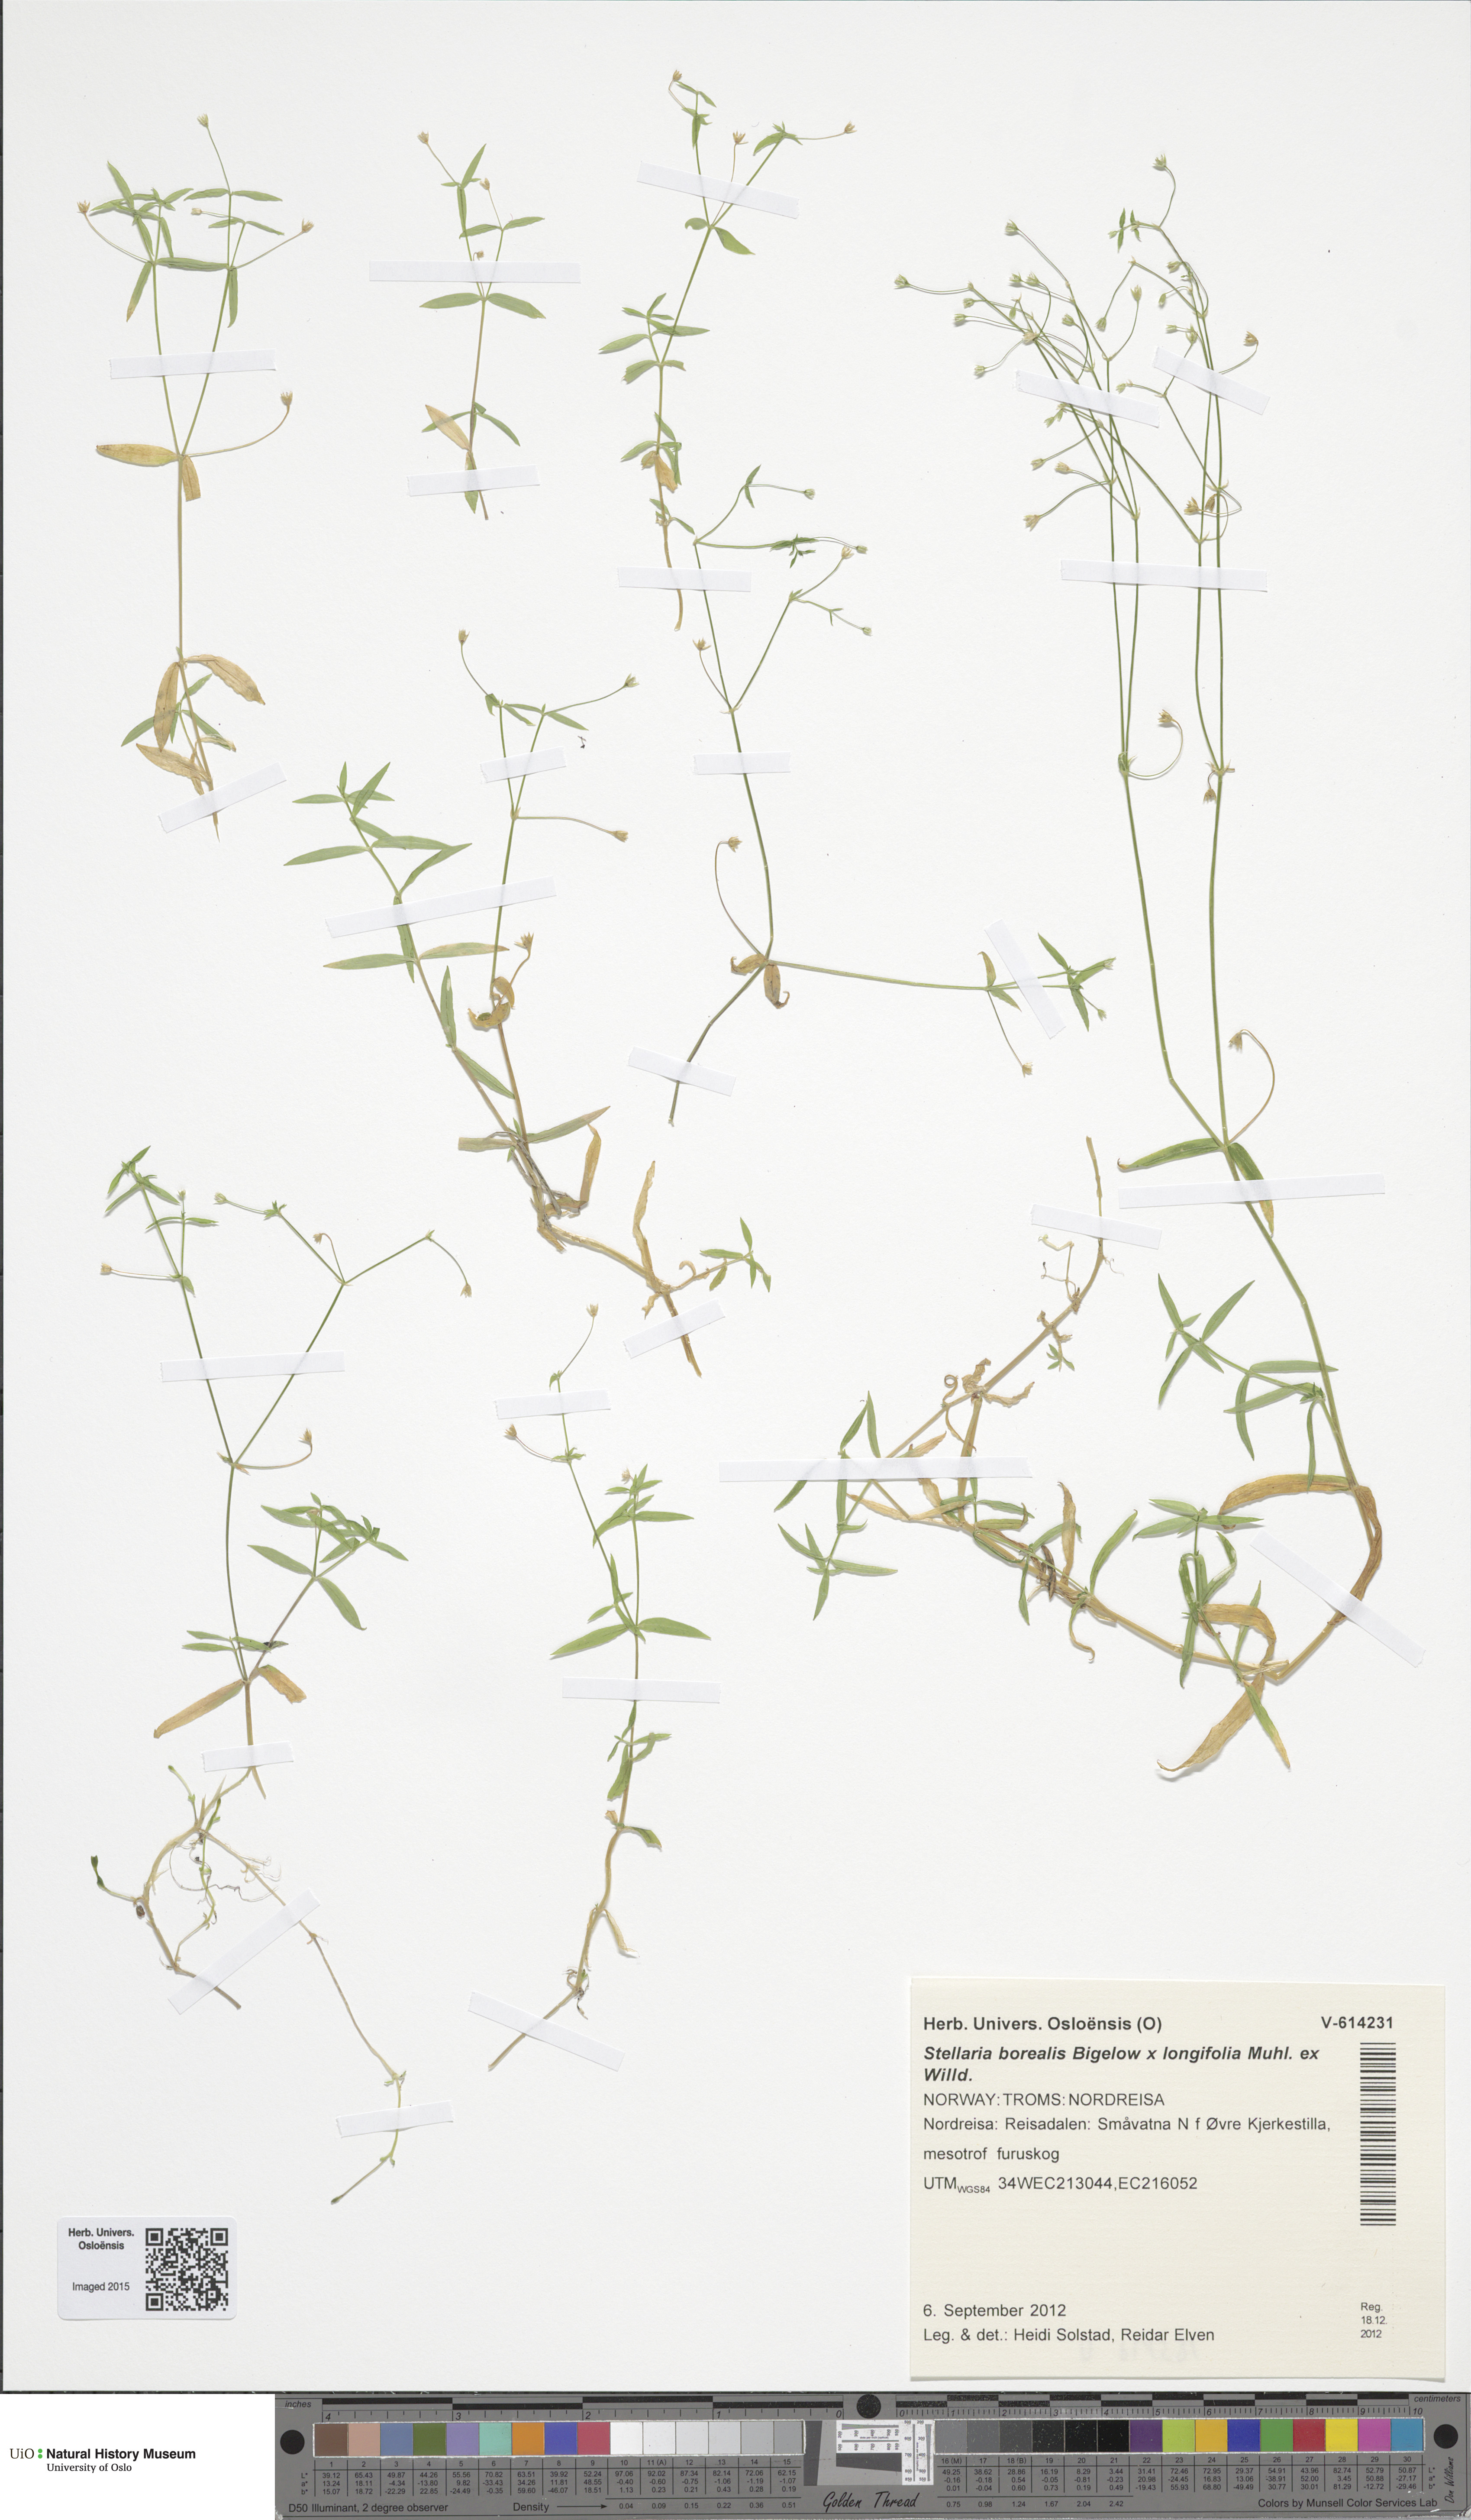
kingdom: Plantae
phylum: Tracheophyta
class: Magnoliopsida
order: Caryophyllales
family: Caryophyllaceae
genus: Stellaria
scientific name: Stellaria
